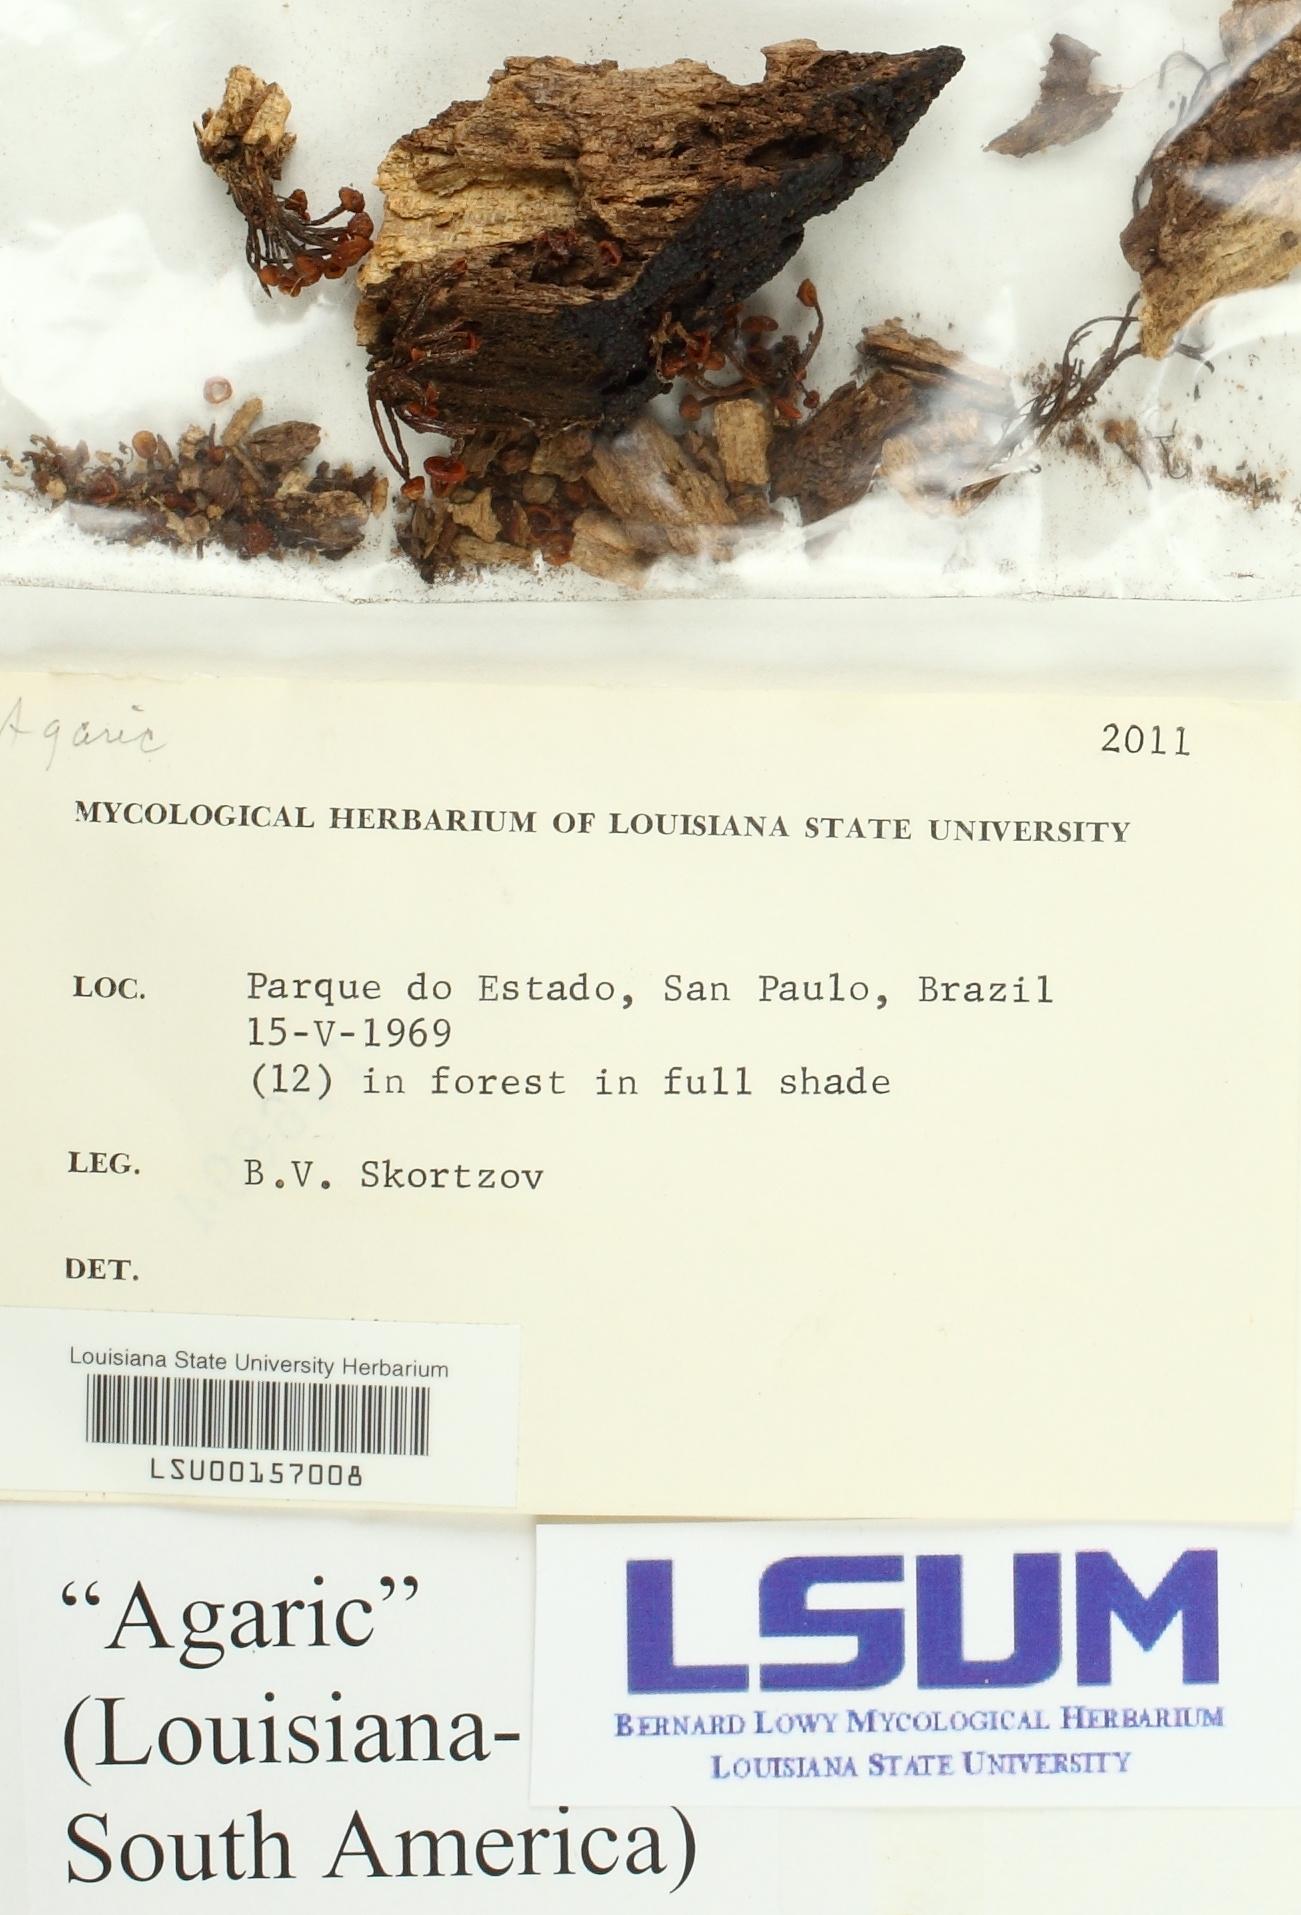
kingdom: Fungi
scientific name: Fungi
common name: Fungi
